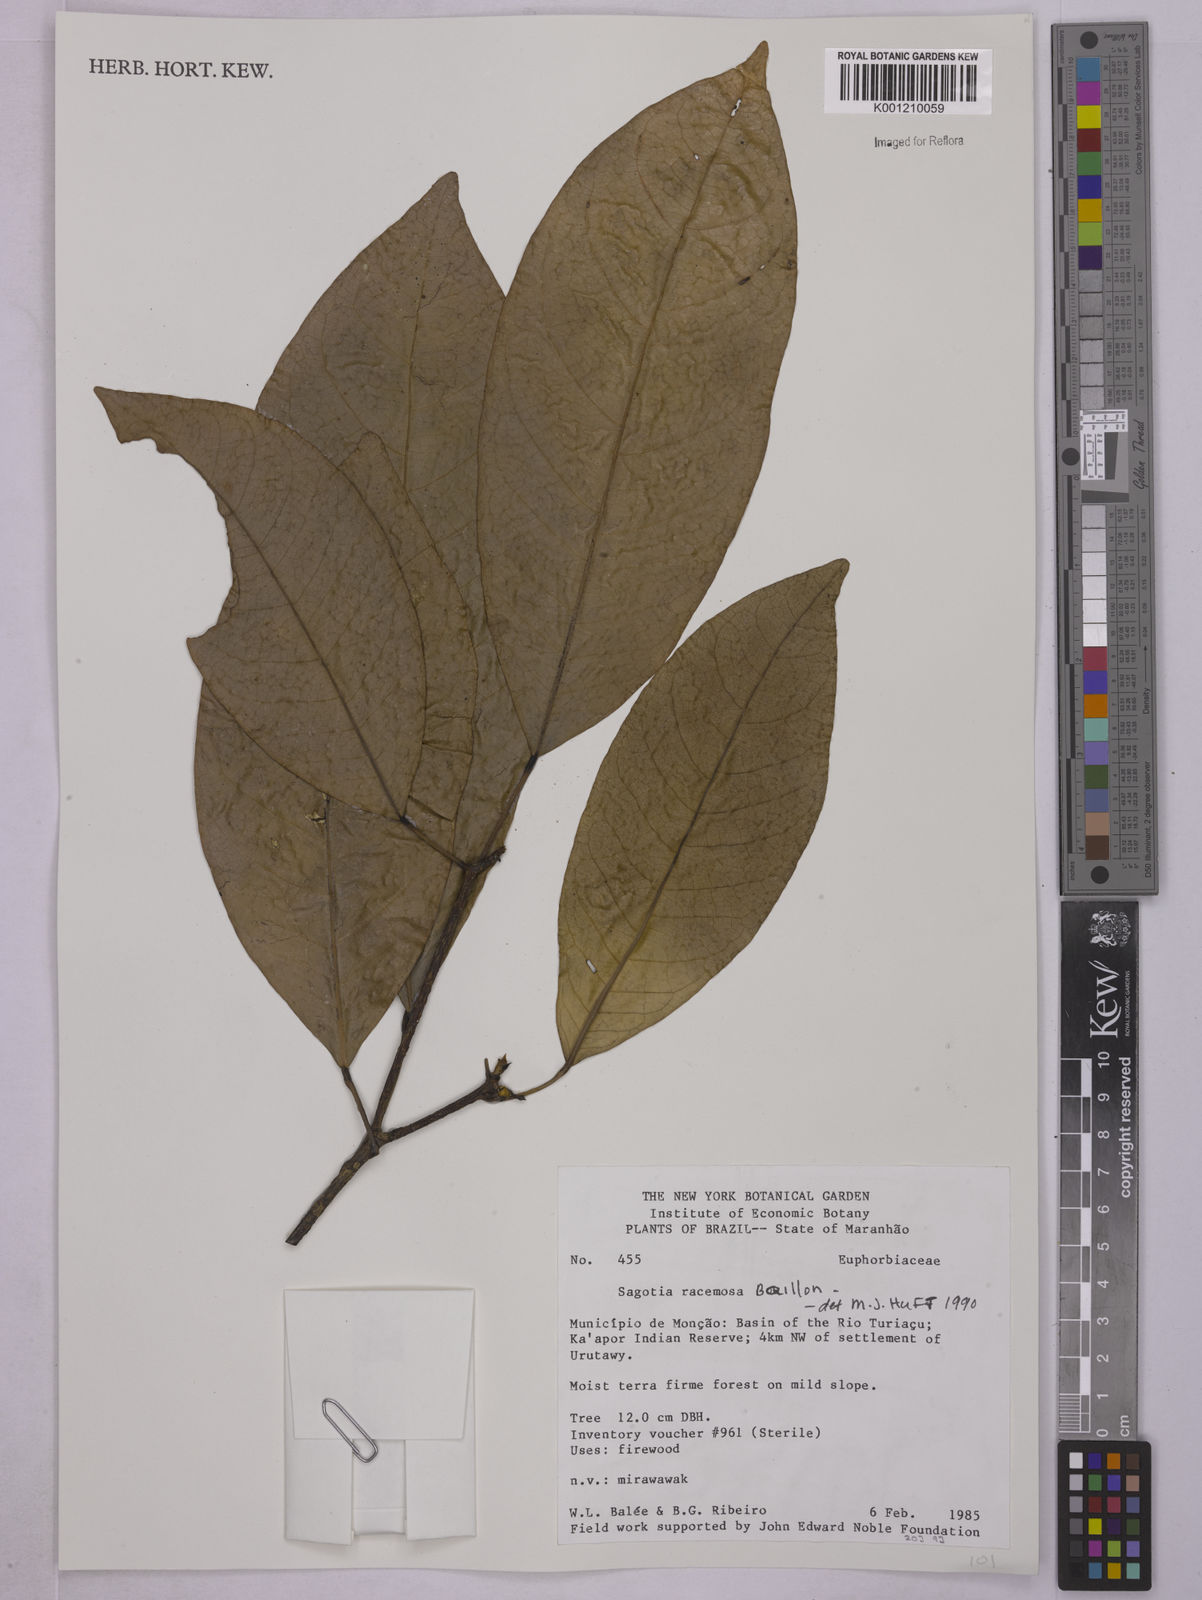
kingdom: Plantae
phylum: Tracheophyta
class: Magnoliopsida
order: Malpighiales
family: Euphorbiaceae
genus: Sagotia
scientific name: Sagotia racemosa
